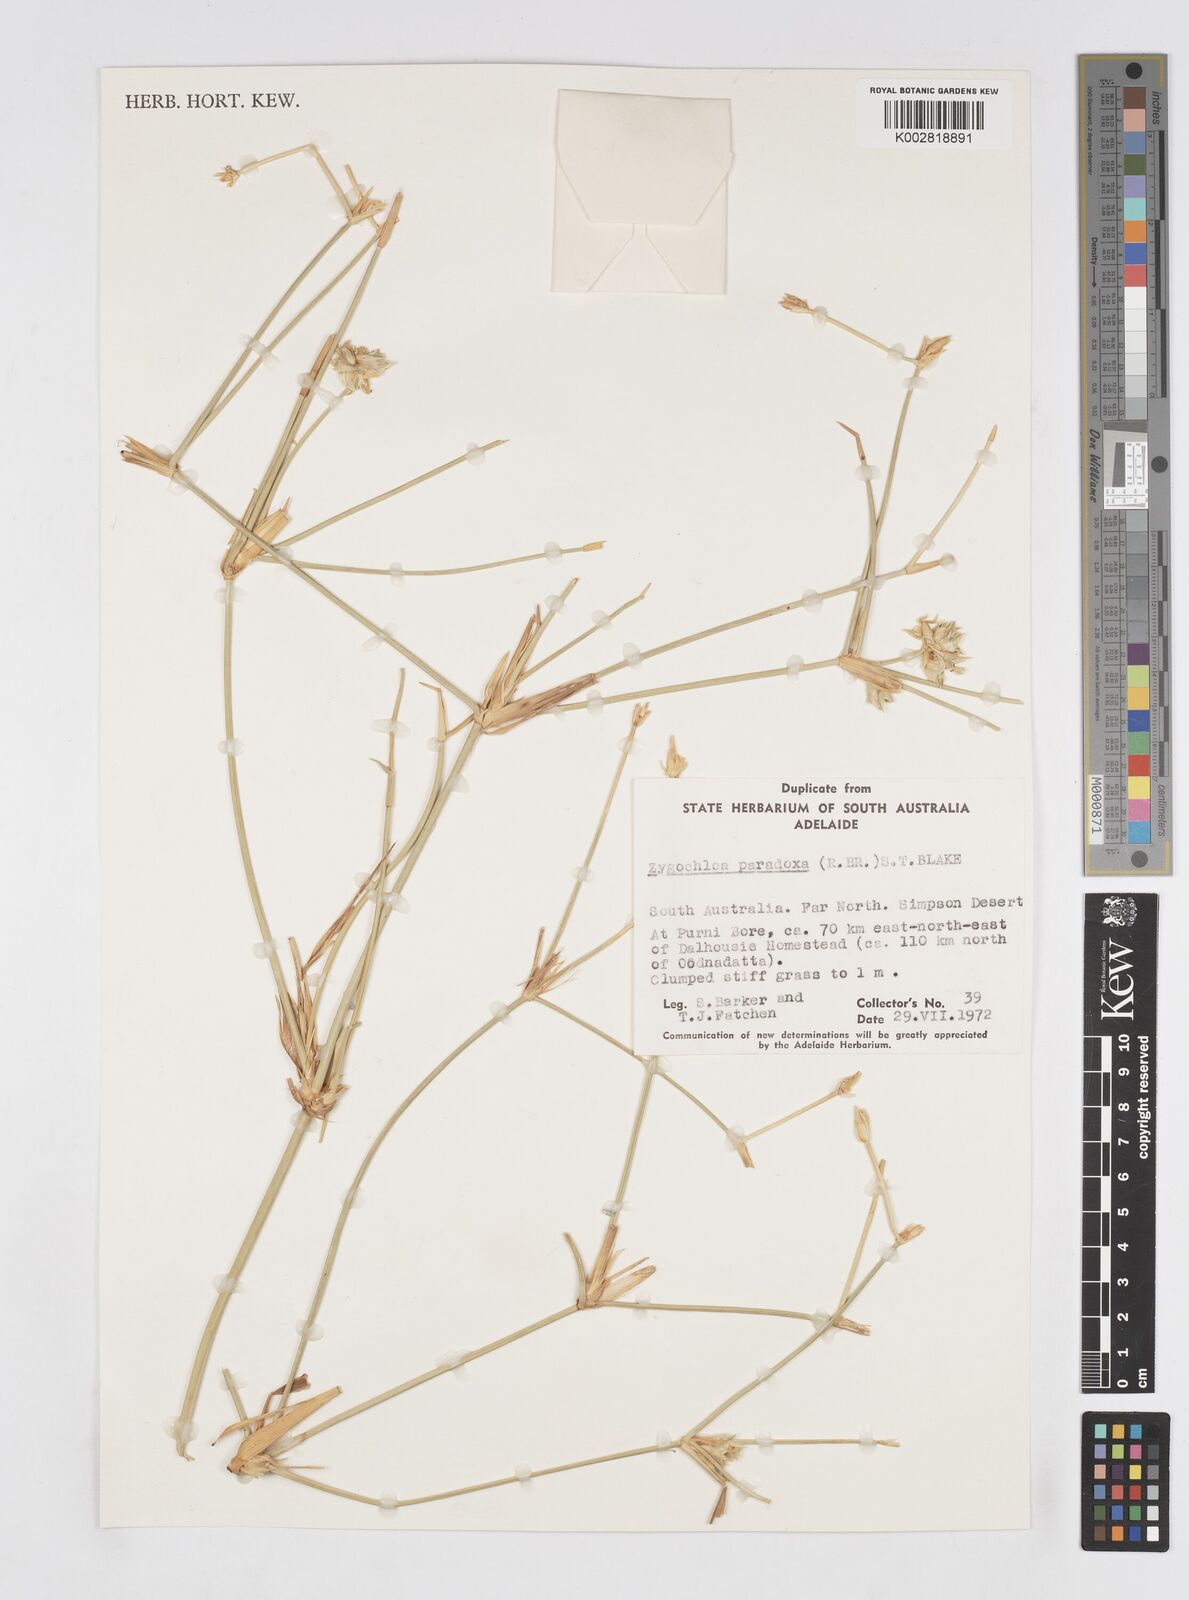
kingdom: Plantae
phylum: Tracheophyta
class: Liliopsida
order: Poales
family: Poaceae
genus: Zygochloa
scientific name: Zygochloa paradoxa
